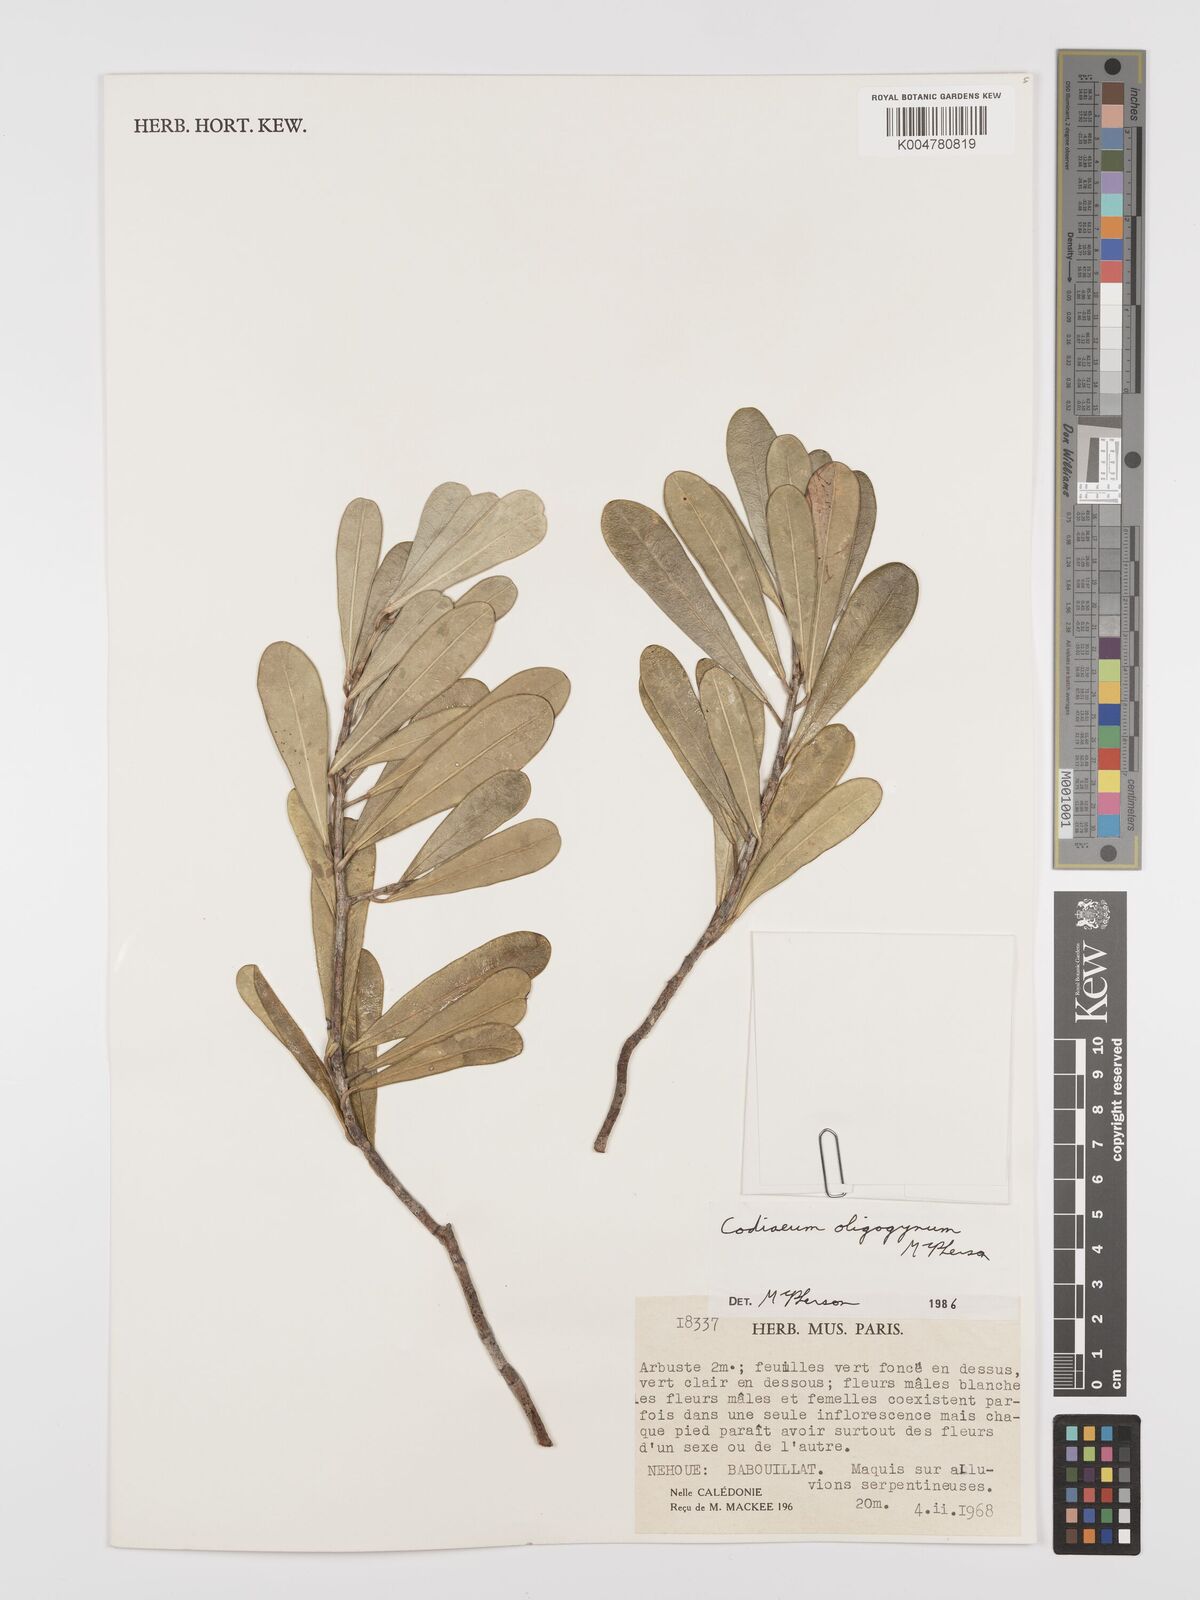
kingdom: Plantae
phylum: Tracheophyta
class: Magnoliopsida
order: Malpighiales
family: Euphorbiaceae
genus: Codiaeum
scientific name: Codiaeum oligogynum
